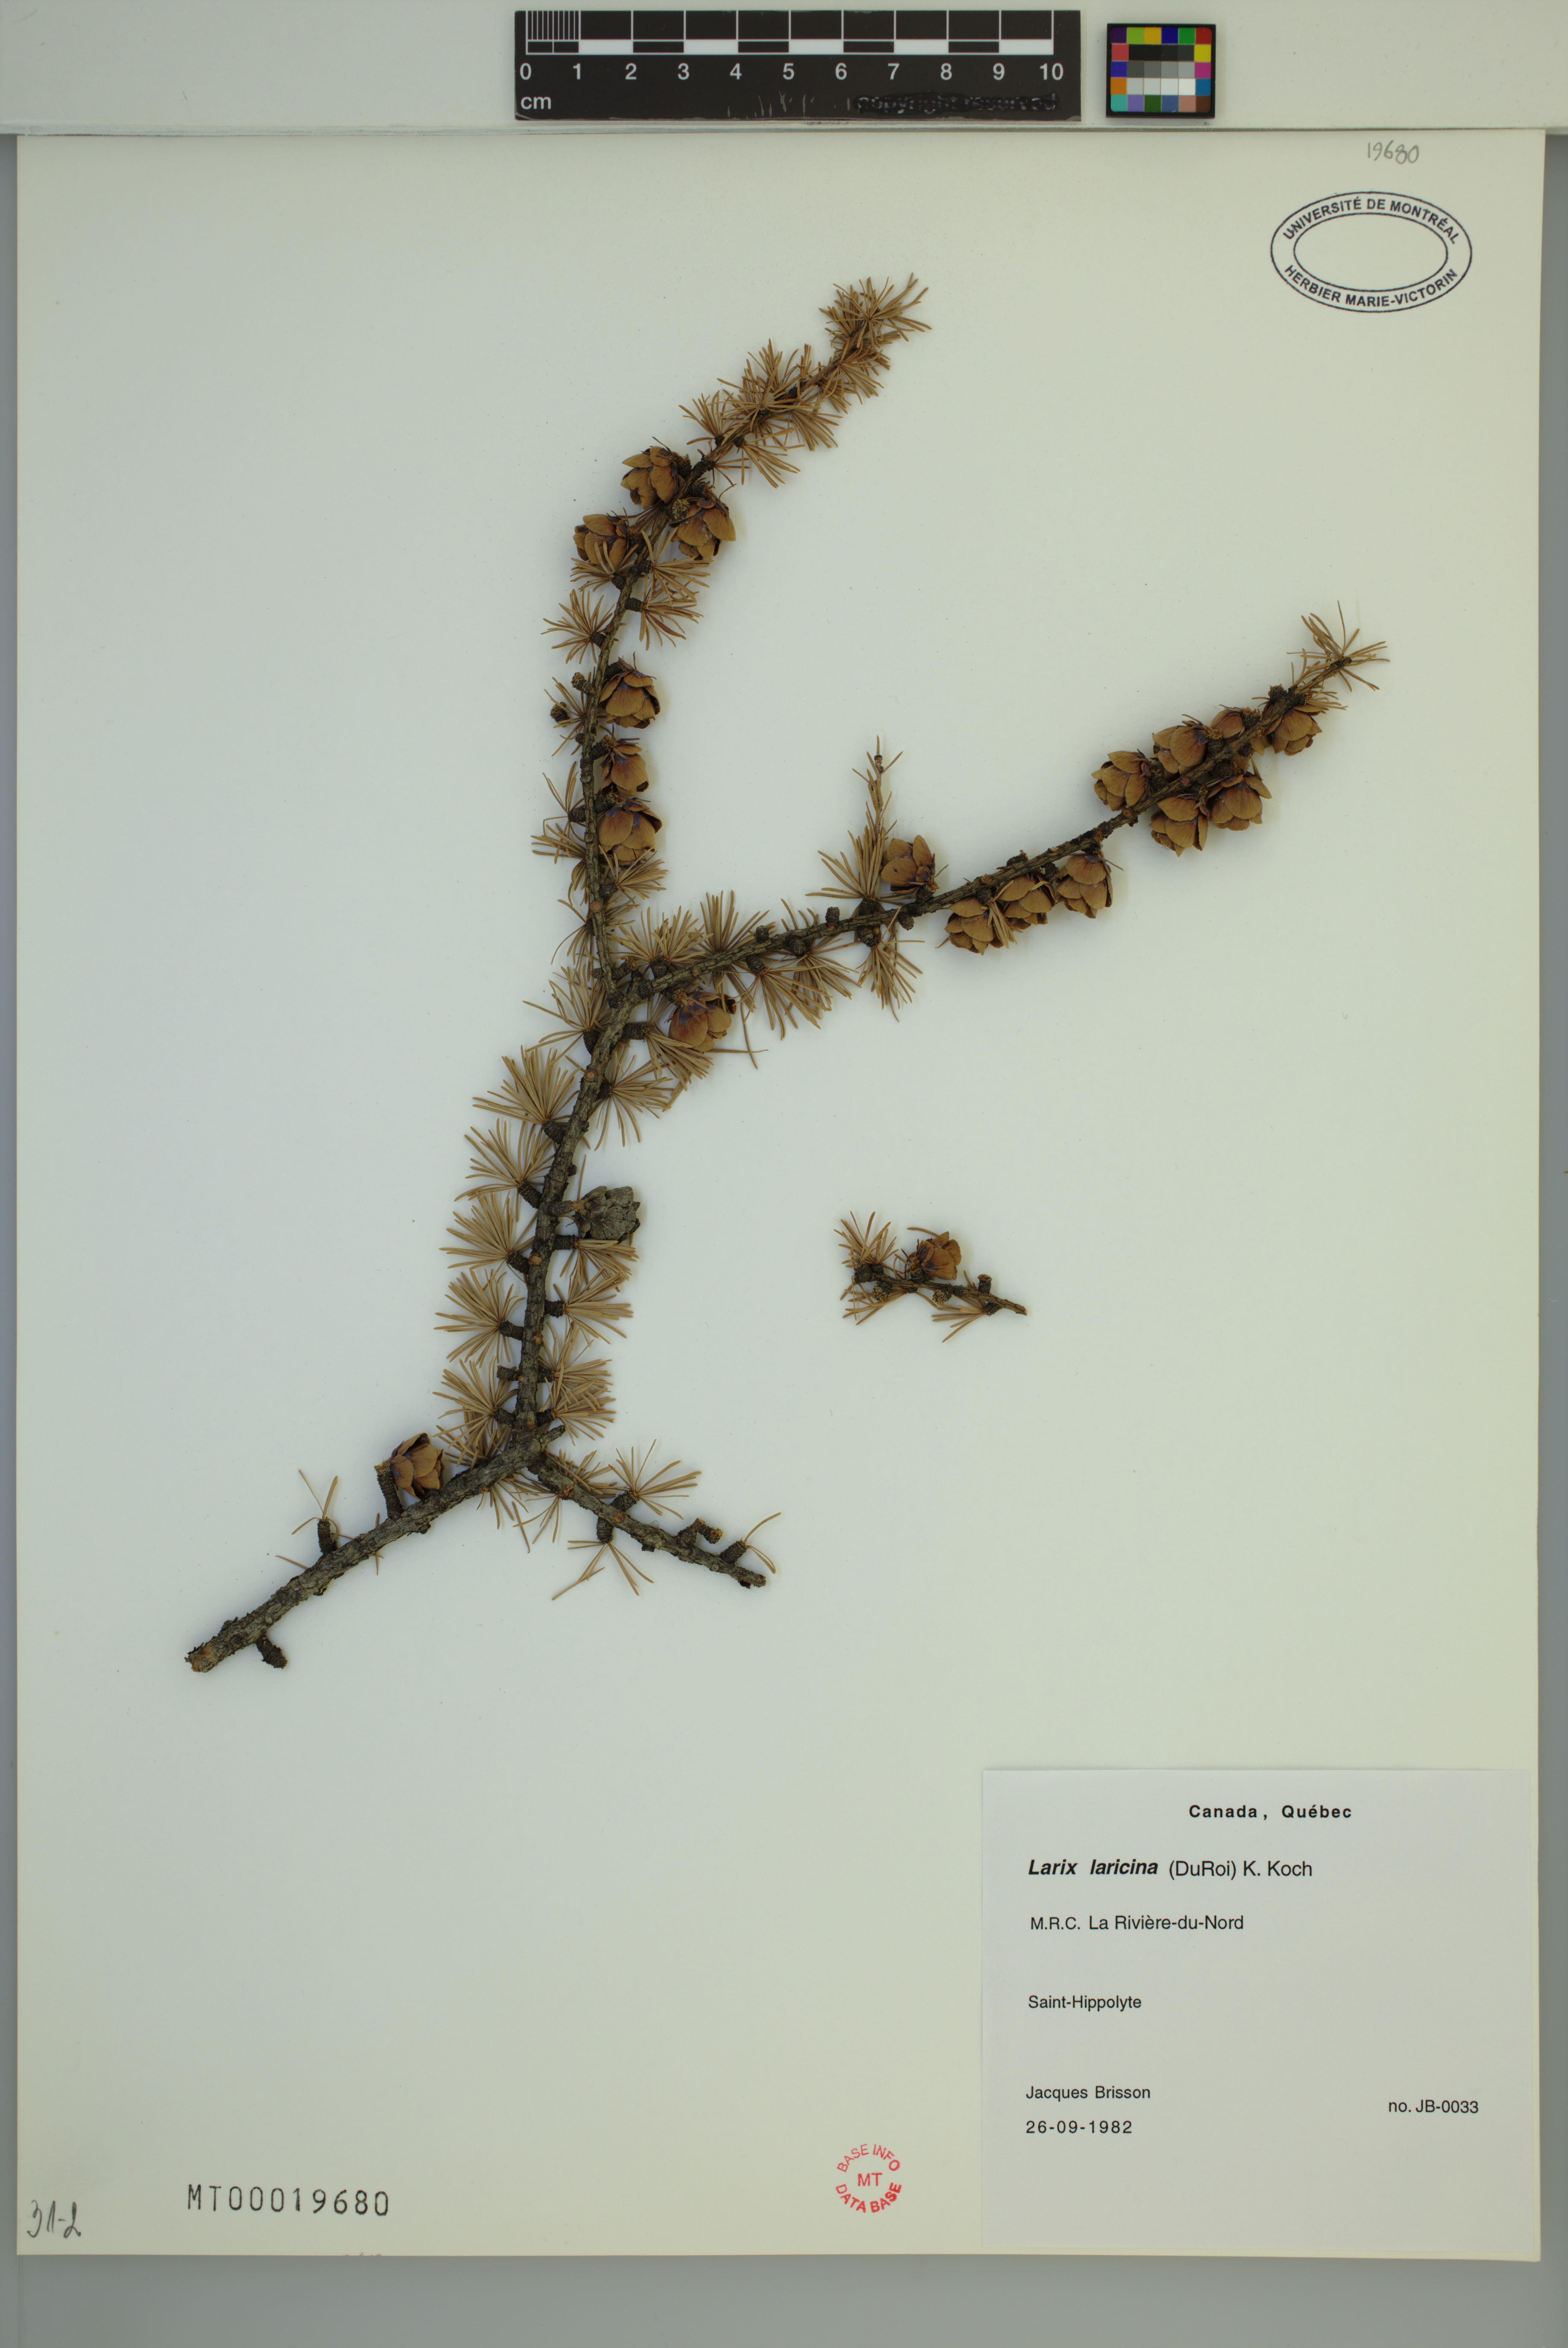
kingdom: Plantae
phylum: Tracheophyta
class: Pinopsida
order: Pinales
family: Pinaceae
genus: Larix
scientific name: Larix laricina
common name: American larch
